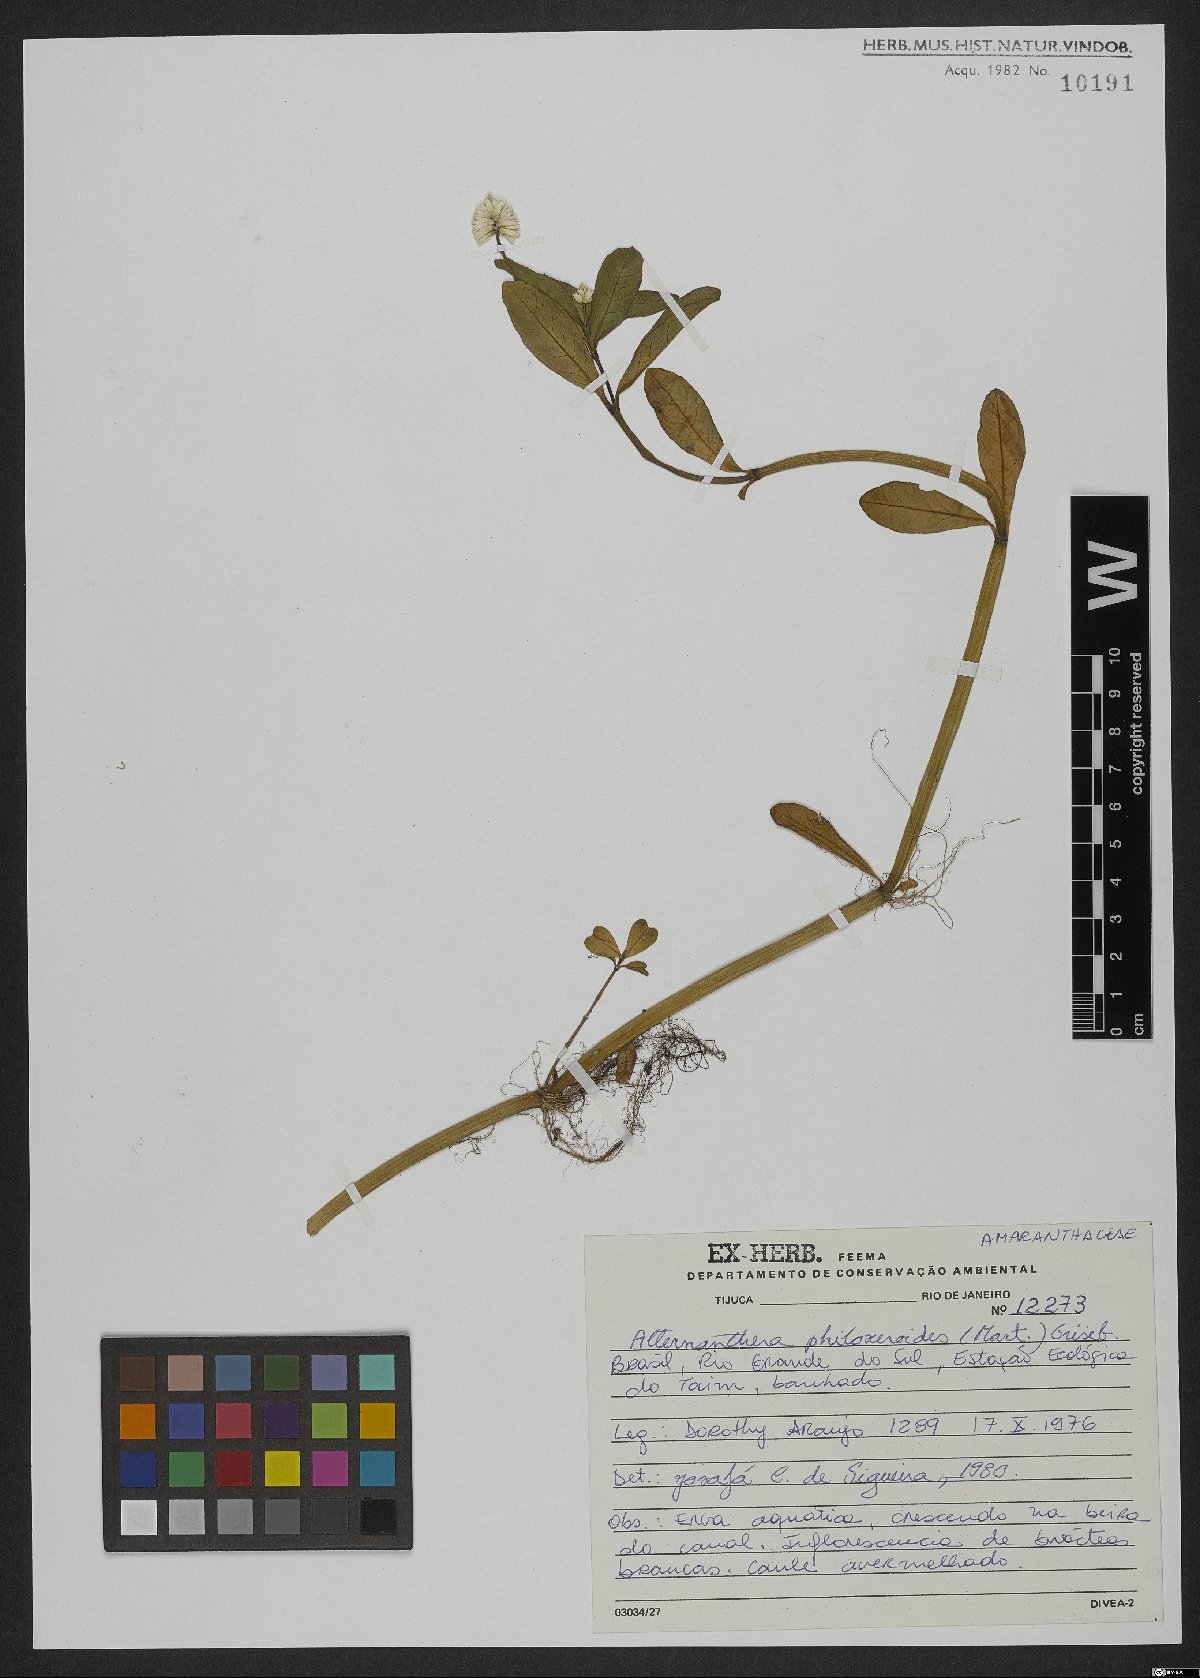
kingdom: Plantae
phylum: Tracheophyta
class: Magnoliopsida
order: Caryophyllales
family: Amaranthaceae
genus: Alternanthera
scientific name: Alternanthera caracasana
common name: Washerwoman
